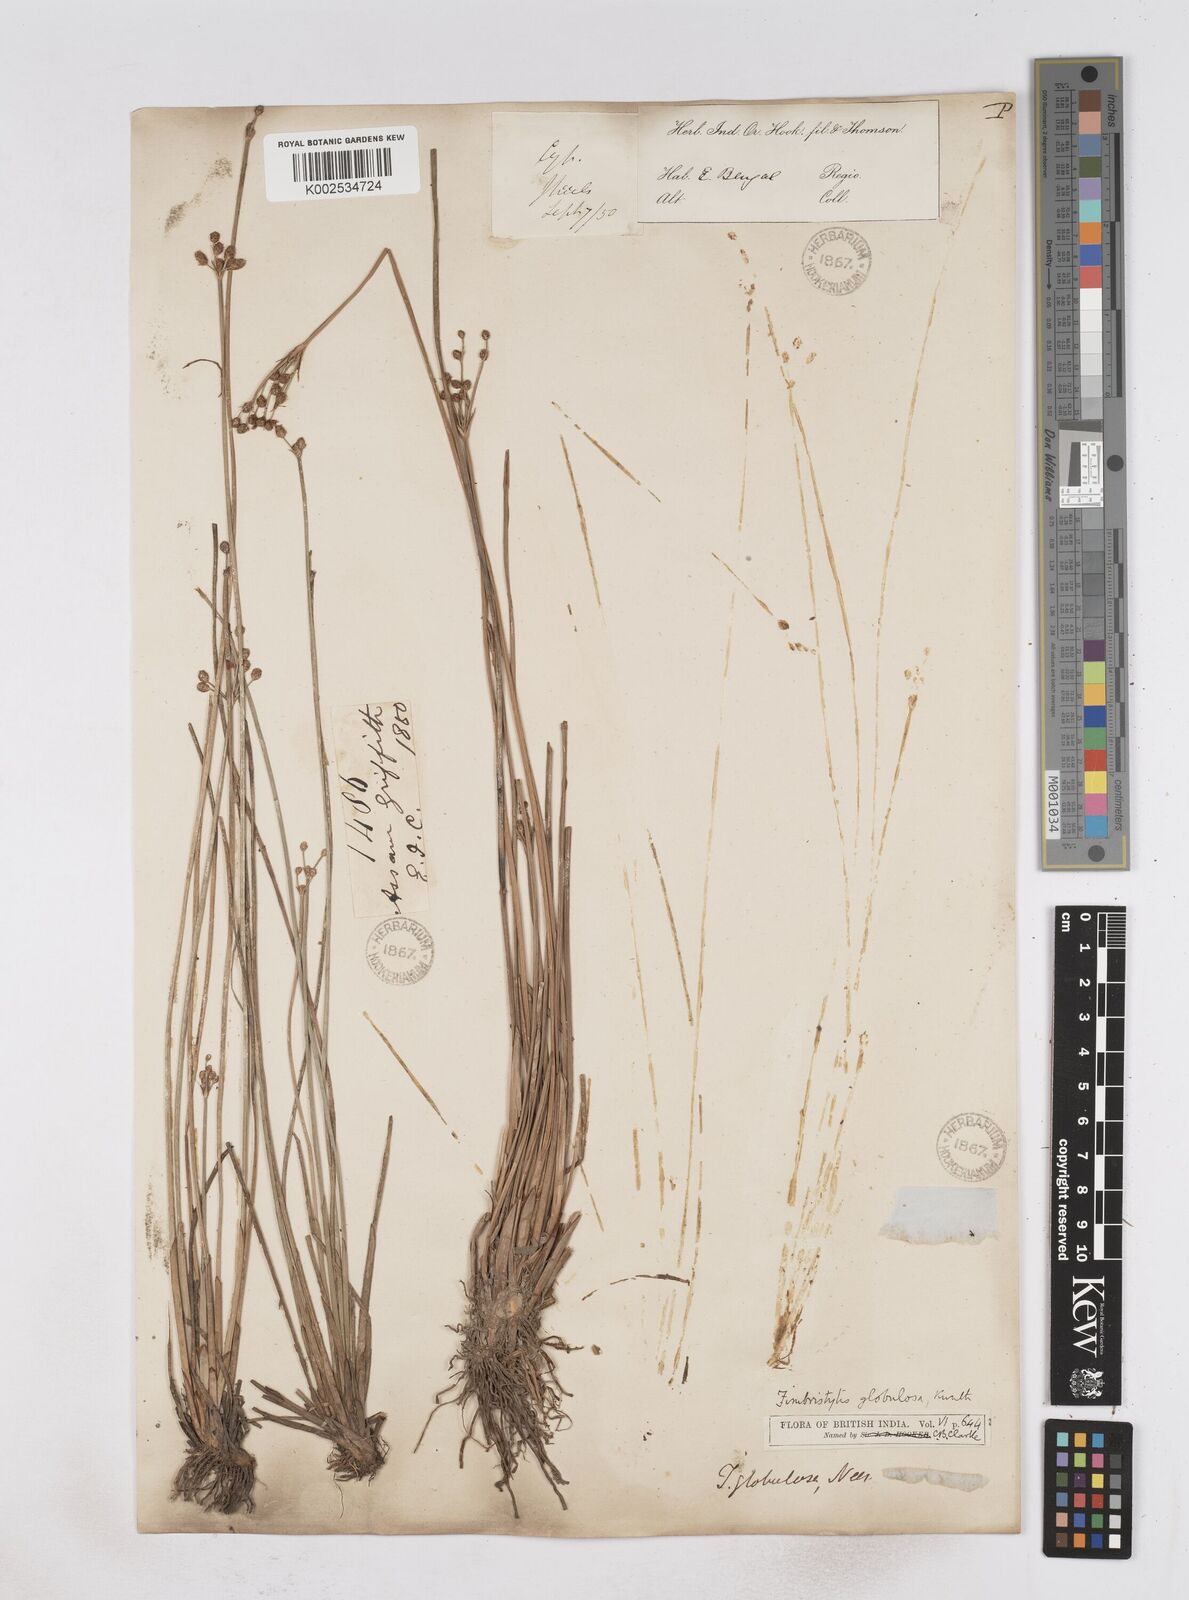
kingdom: Plantae
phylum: Tracheophyta
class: Liliopsida
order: Poales
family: Cyperaceae
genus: Fimbristylis
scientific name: Fimbristylis umbellaris
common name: Globular fimbristylis
